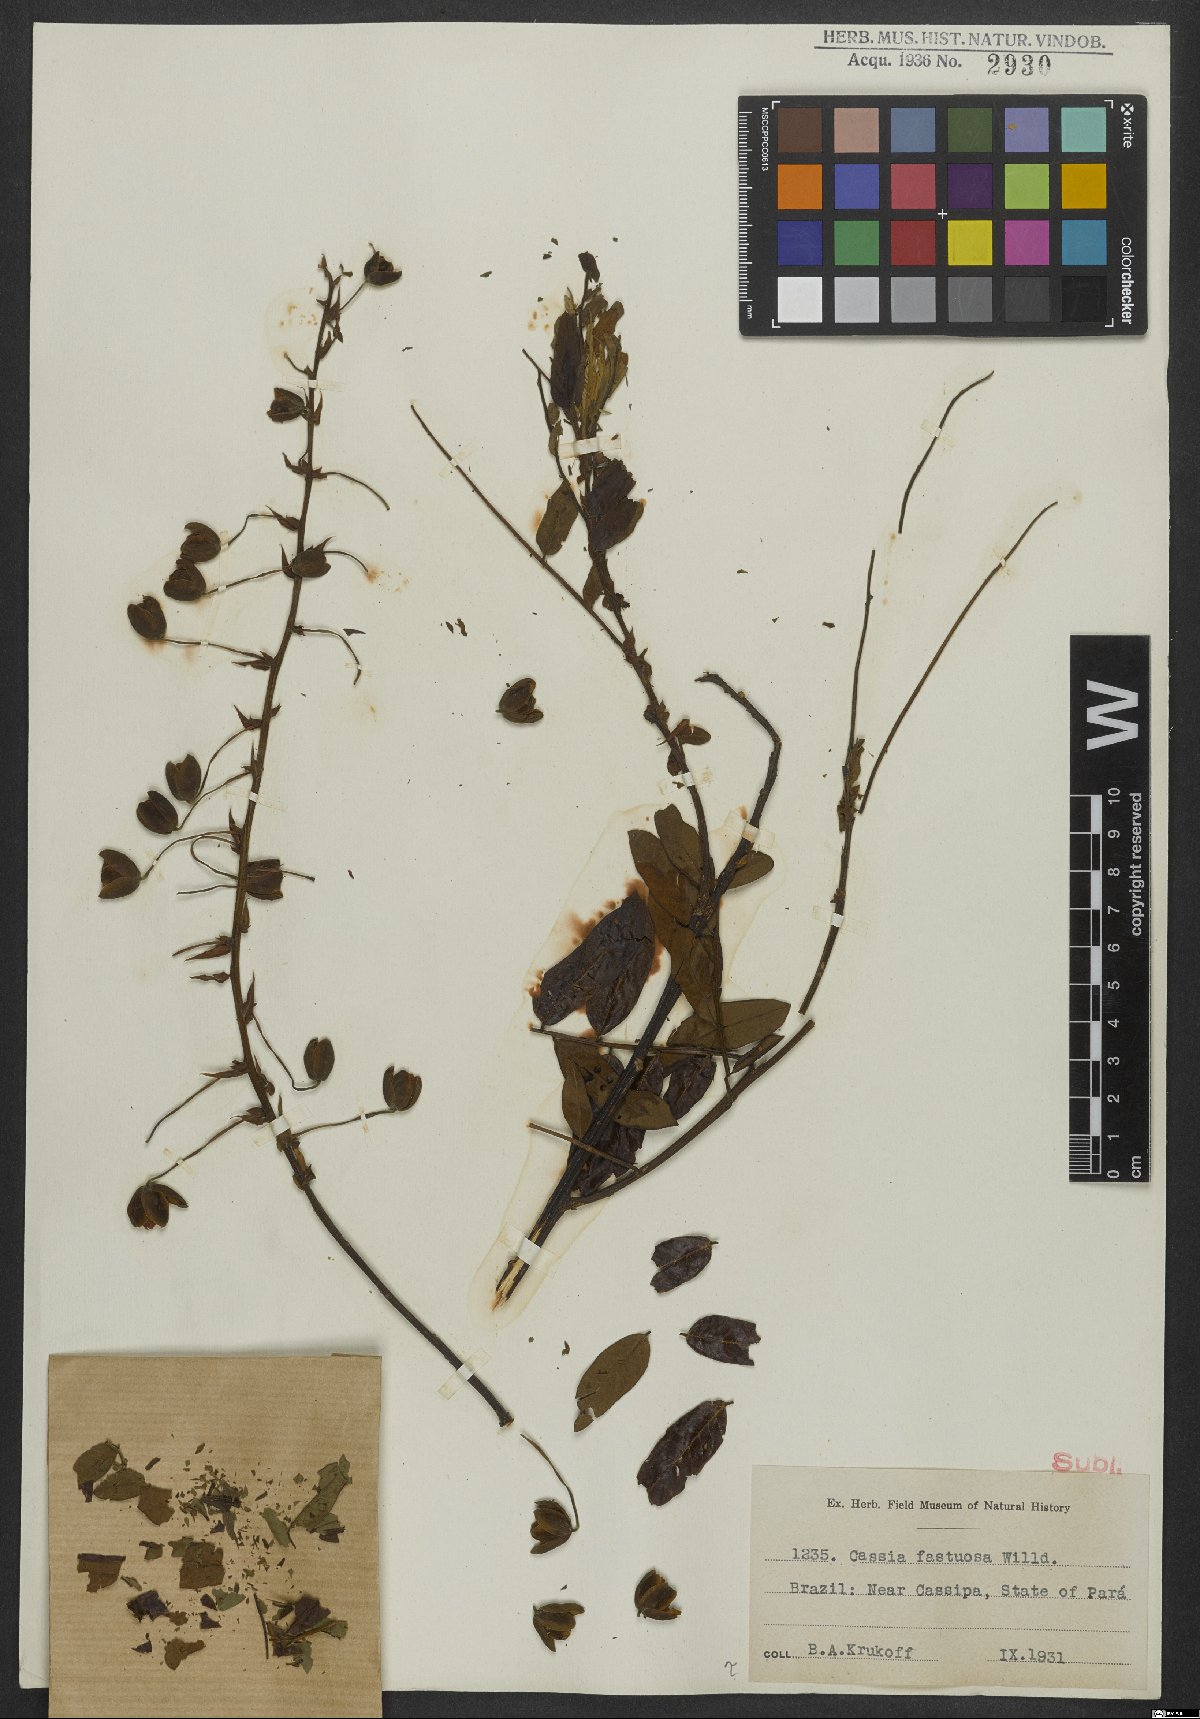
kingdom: Plantae
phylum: Tracheophyta
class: Magnoliopsida
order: Fabales
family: Fabaceae
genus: Cassia
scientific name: Cassia fastuosa
